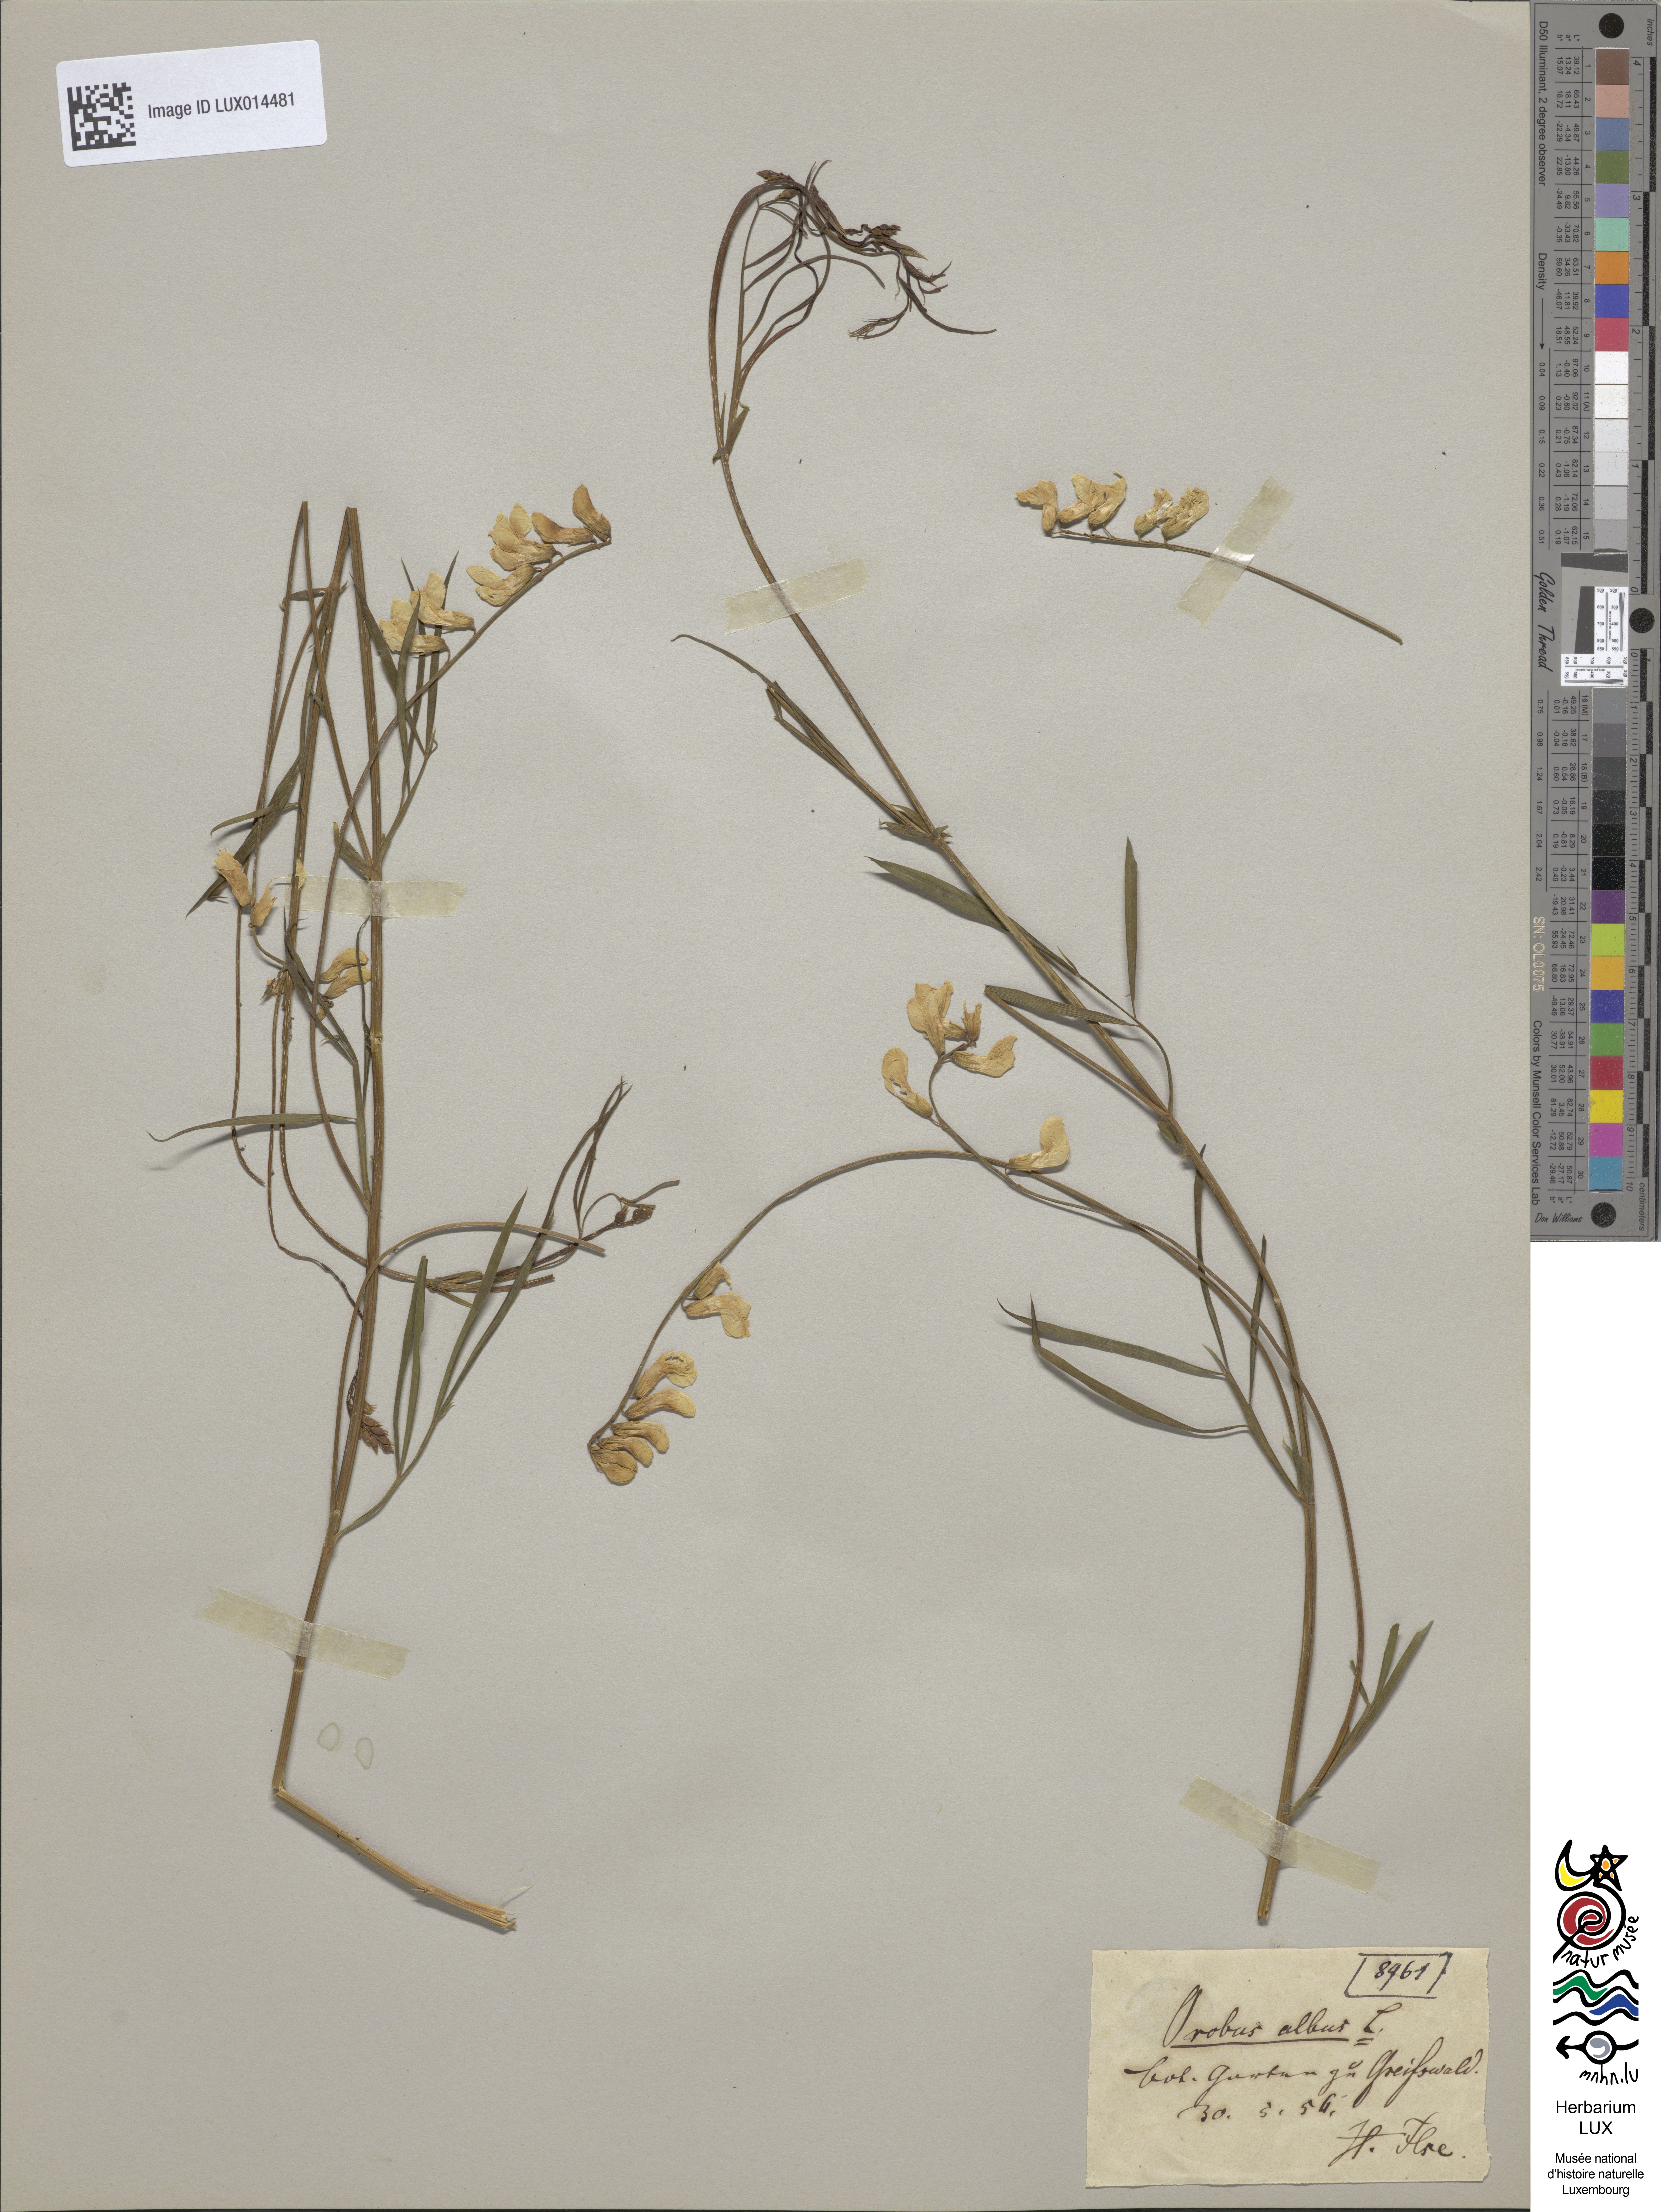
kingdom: Plantae
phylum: Tracheophyta
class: Magnoliopsida
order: Fabales
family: Fabaceae
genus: Lathyrus
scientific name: Lathyrus pannonicus
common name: Pea
